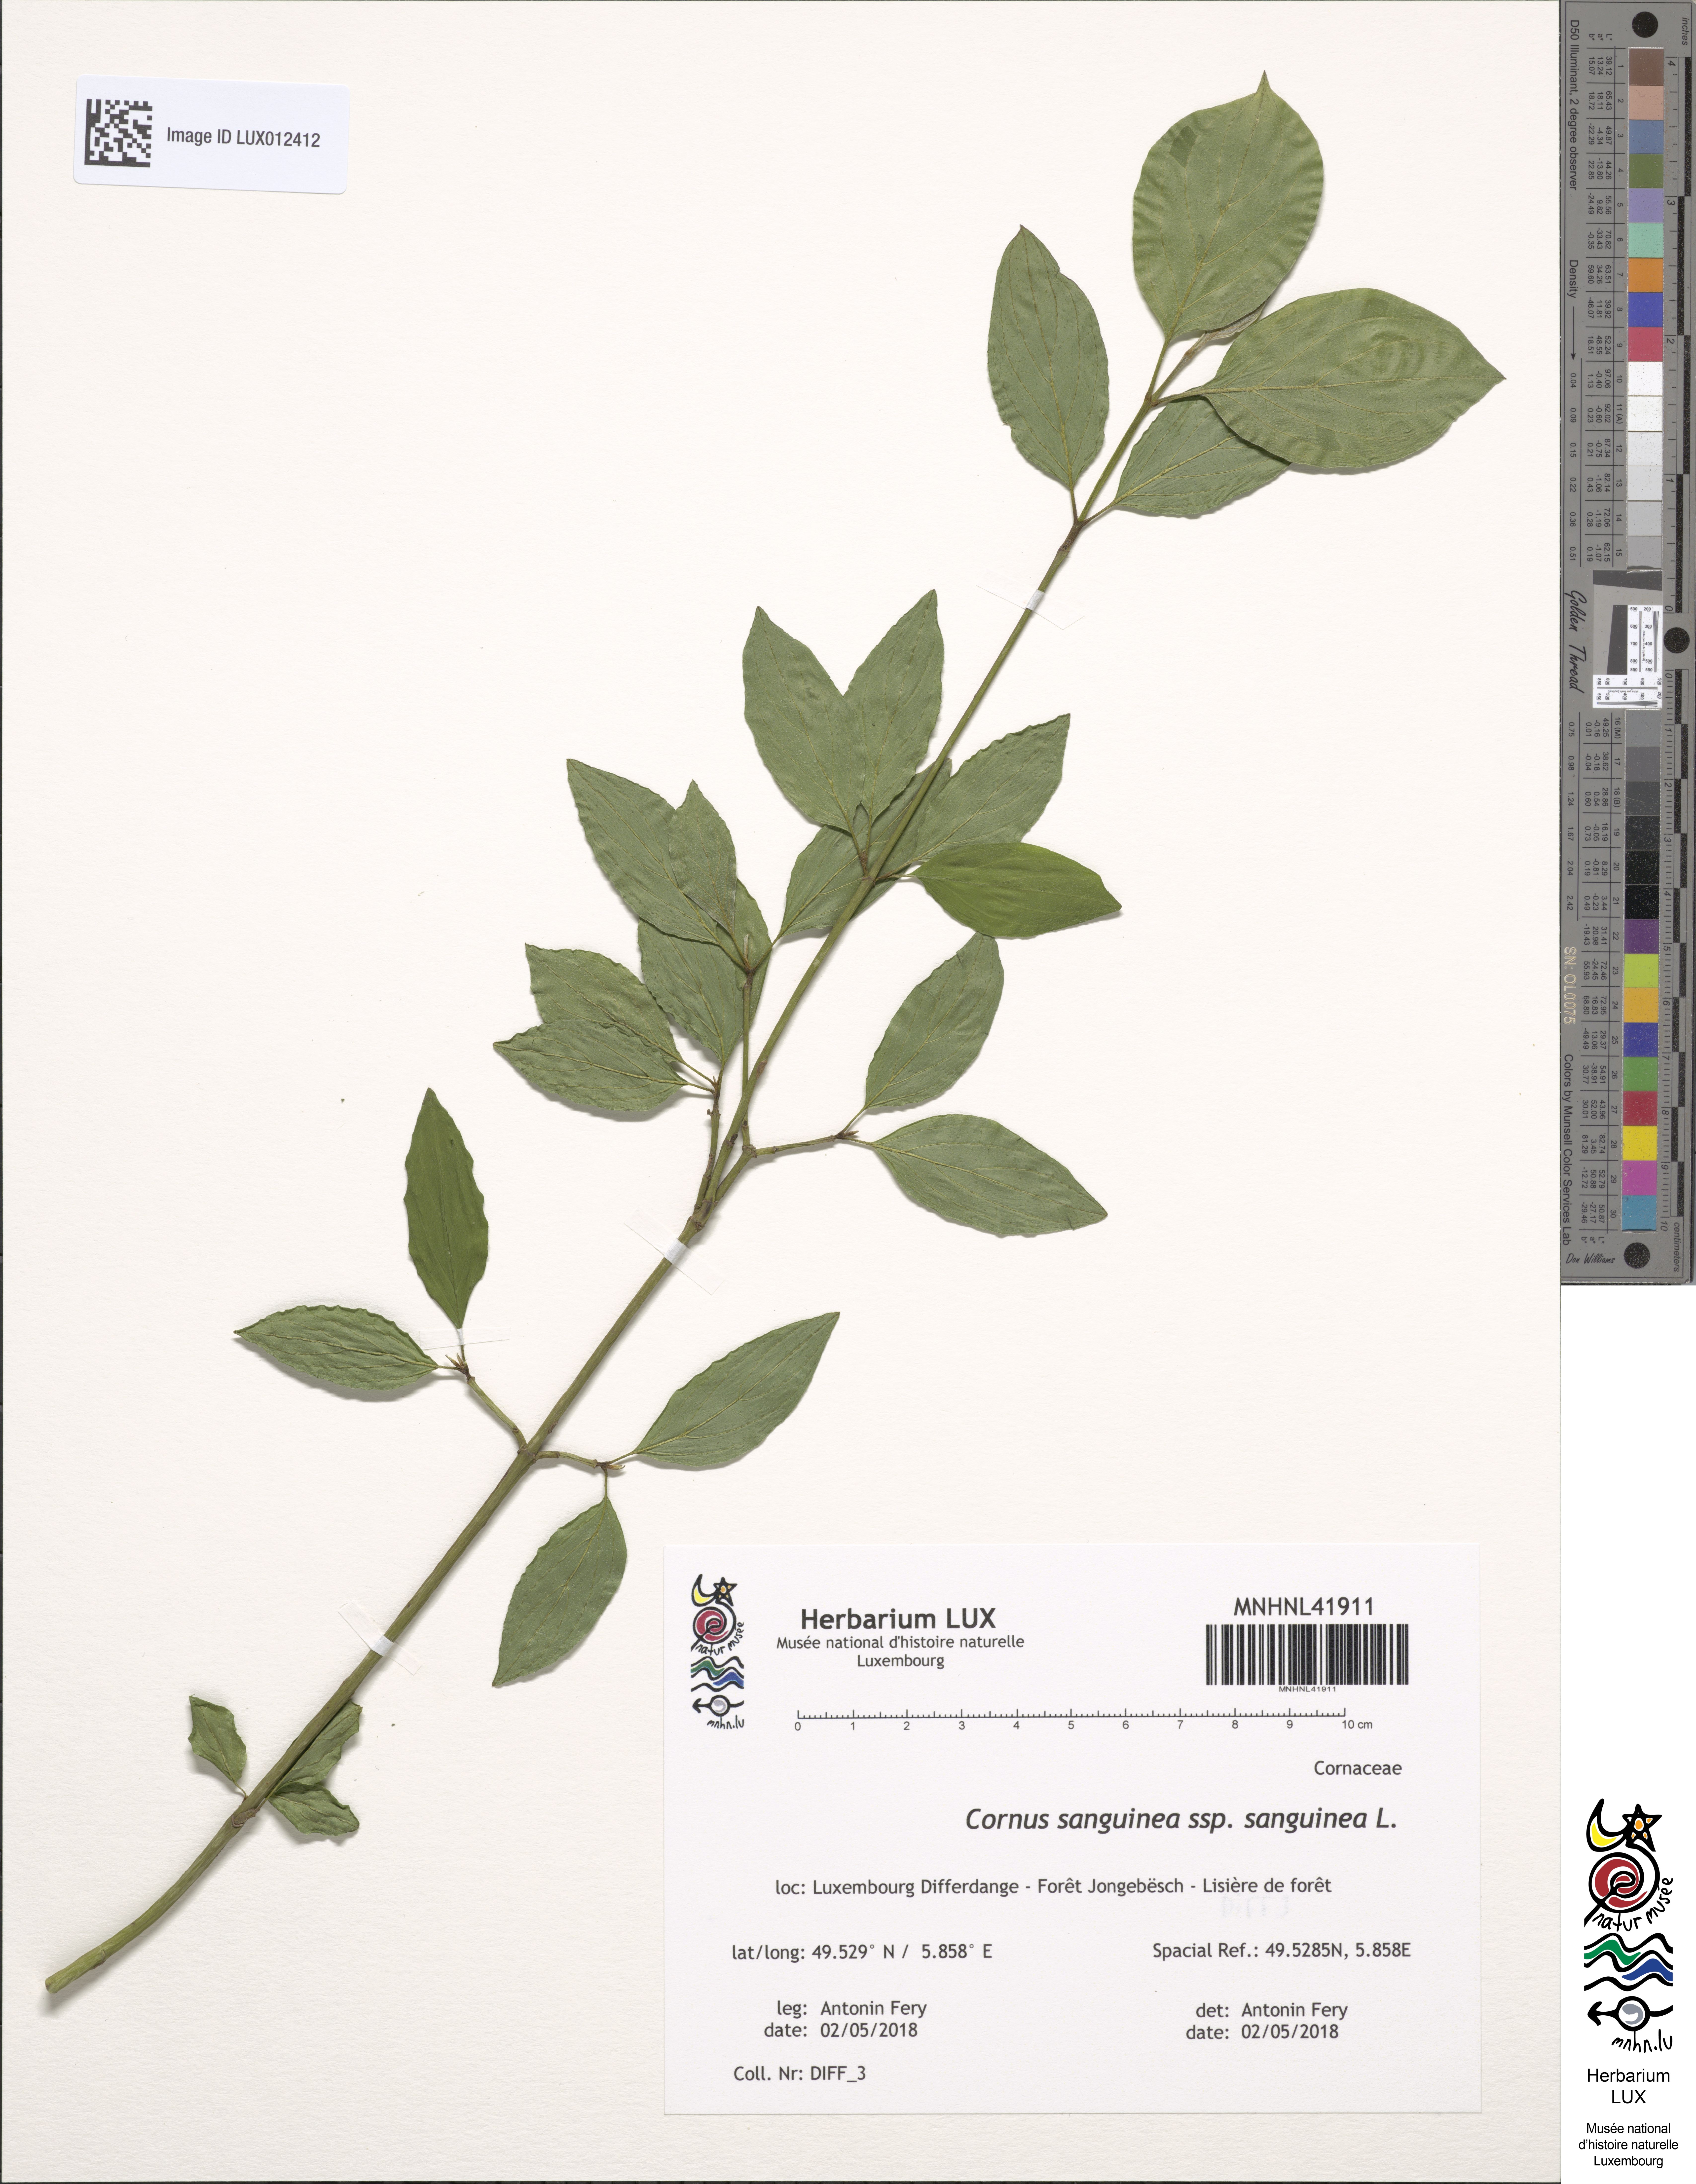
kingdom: Plantae
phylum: Tracheophyta
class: Magnoliopsida
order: Cornales
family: Cornaceae
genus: Cornus
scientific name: Cornus sanguinea
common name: Dogwood
